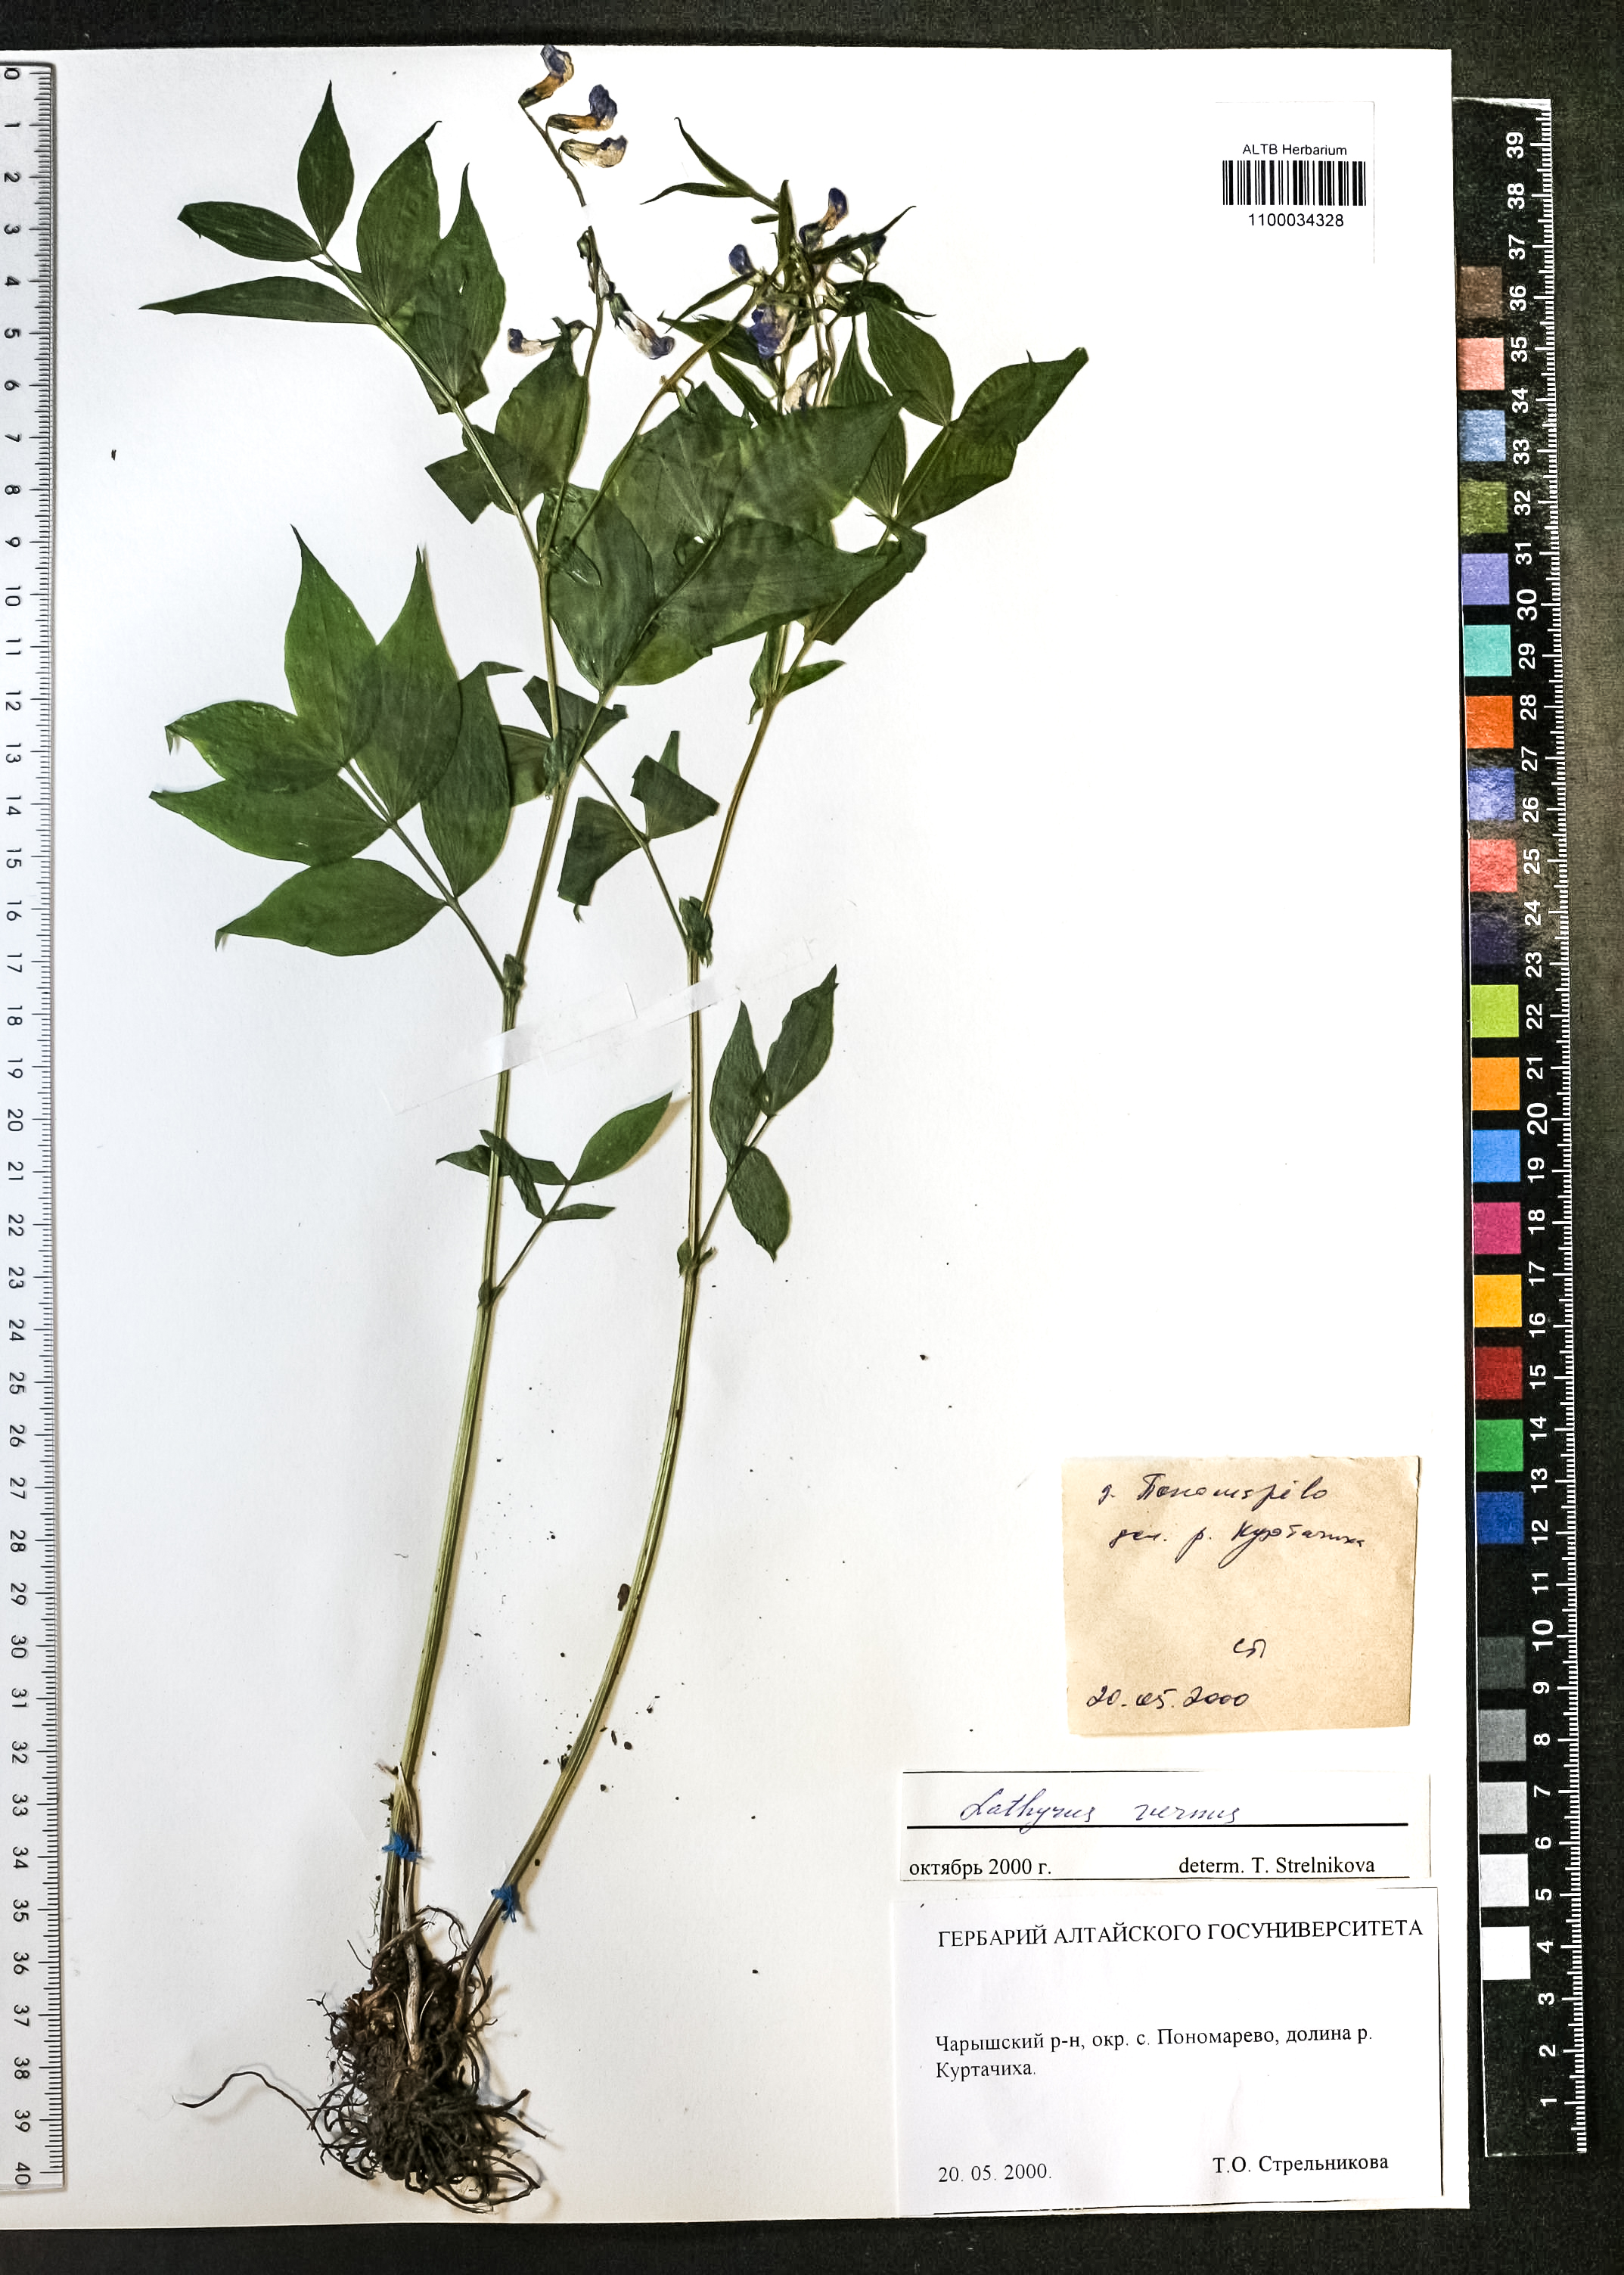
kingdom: Plantae
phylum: Tracheophyta
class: Magnoliopsida
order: Fabales
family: Fabaceae
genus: Lathyrus
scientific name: Lathyrus vernus
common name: Spring pea
